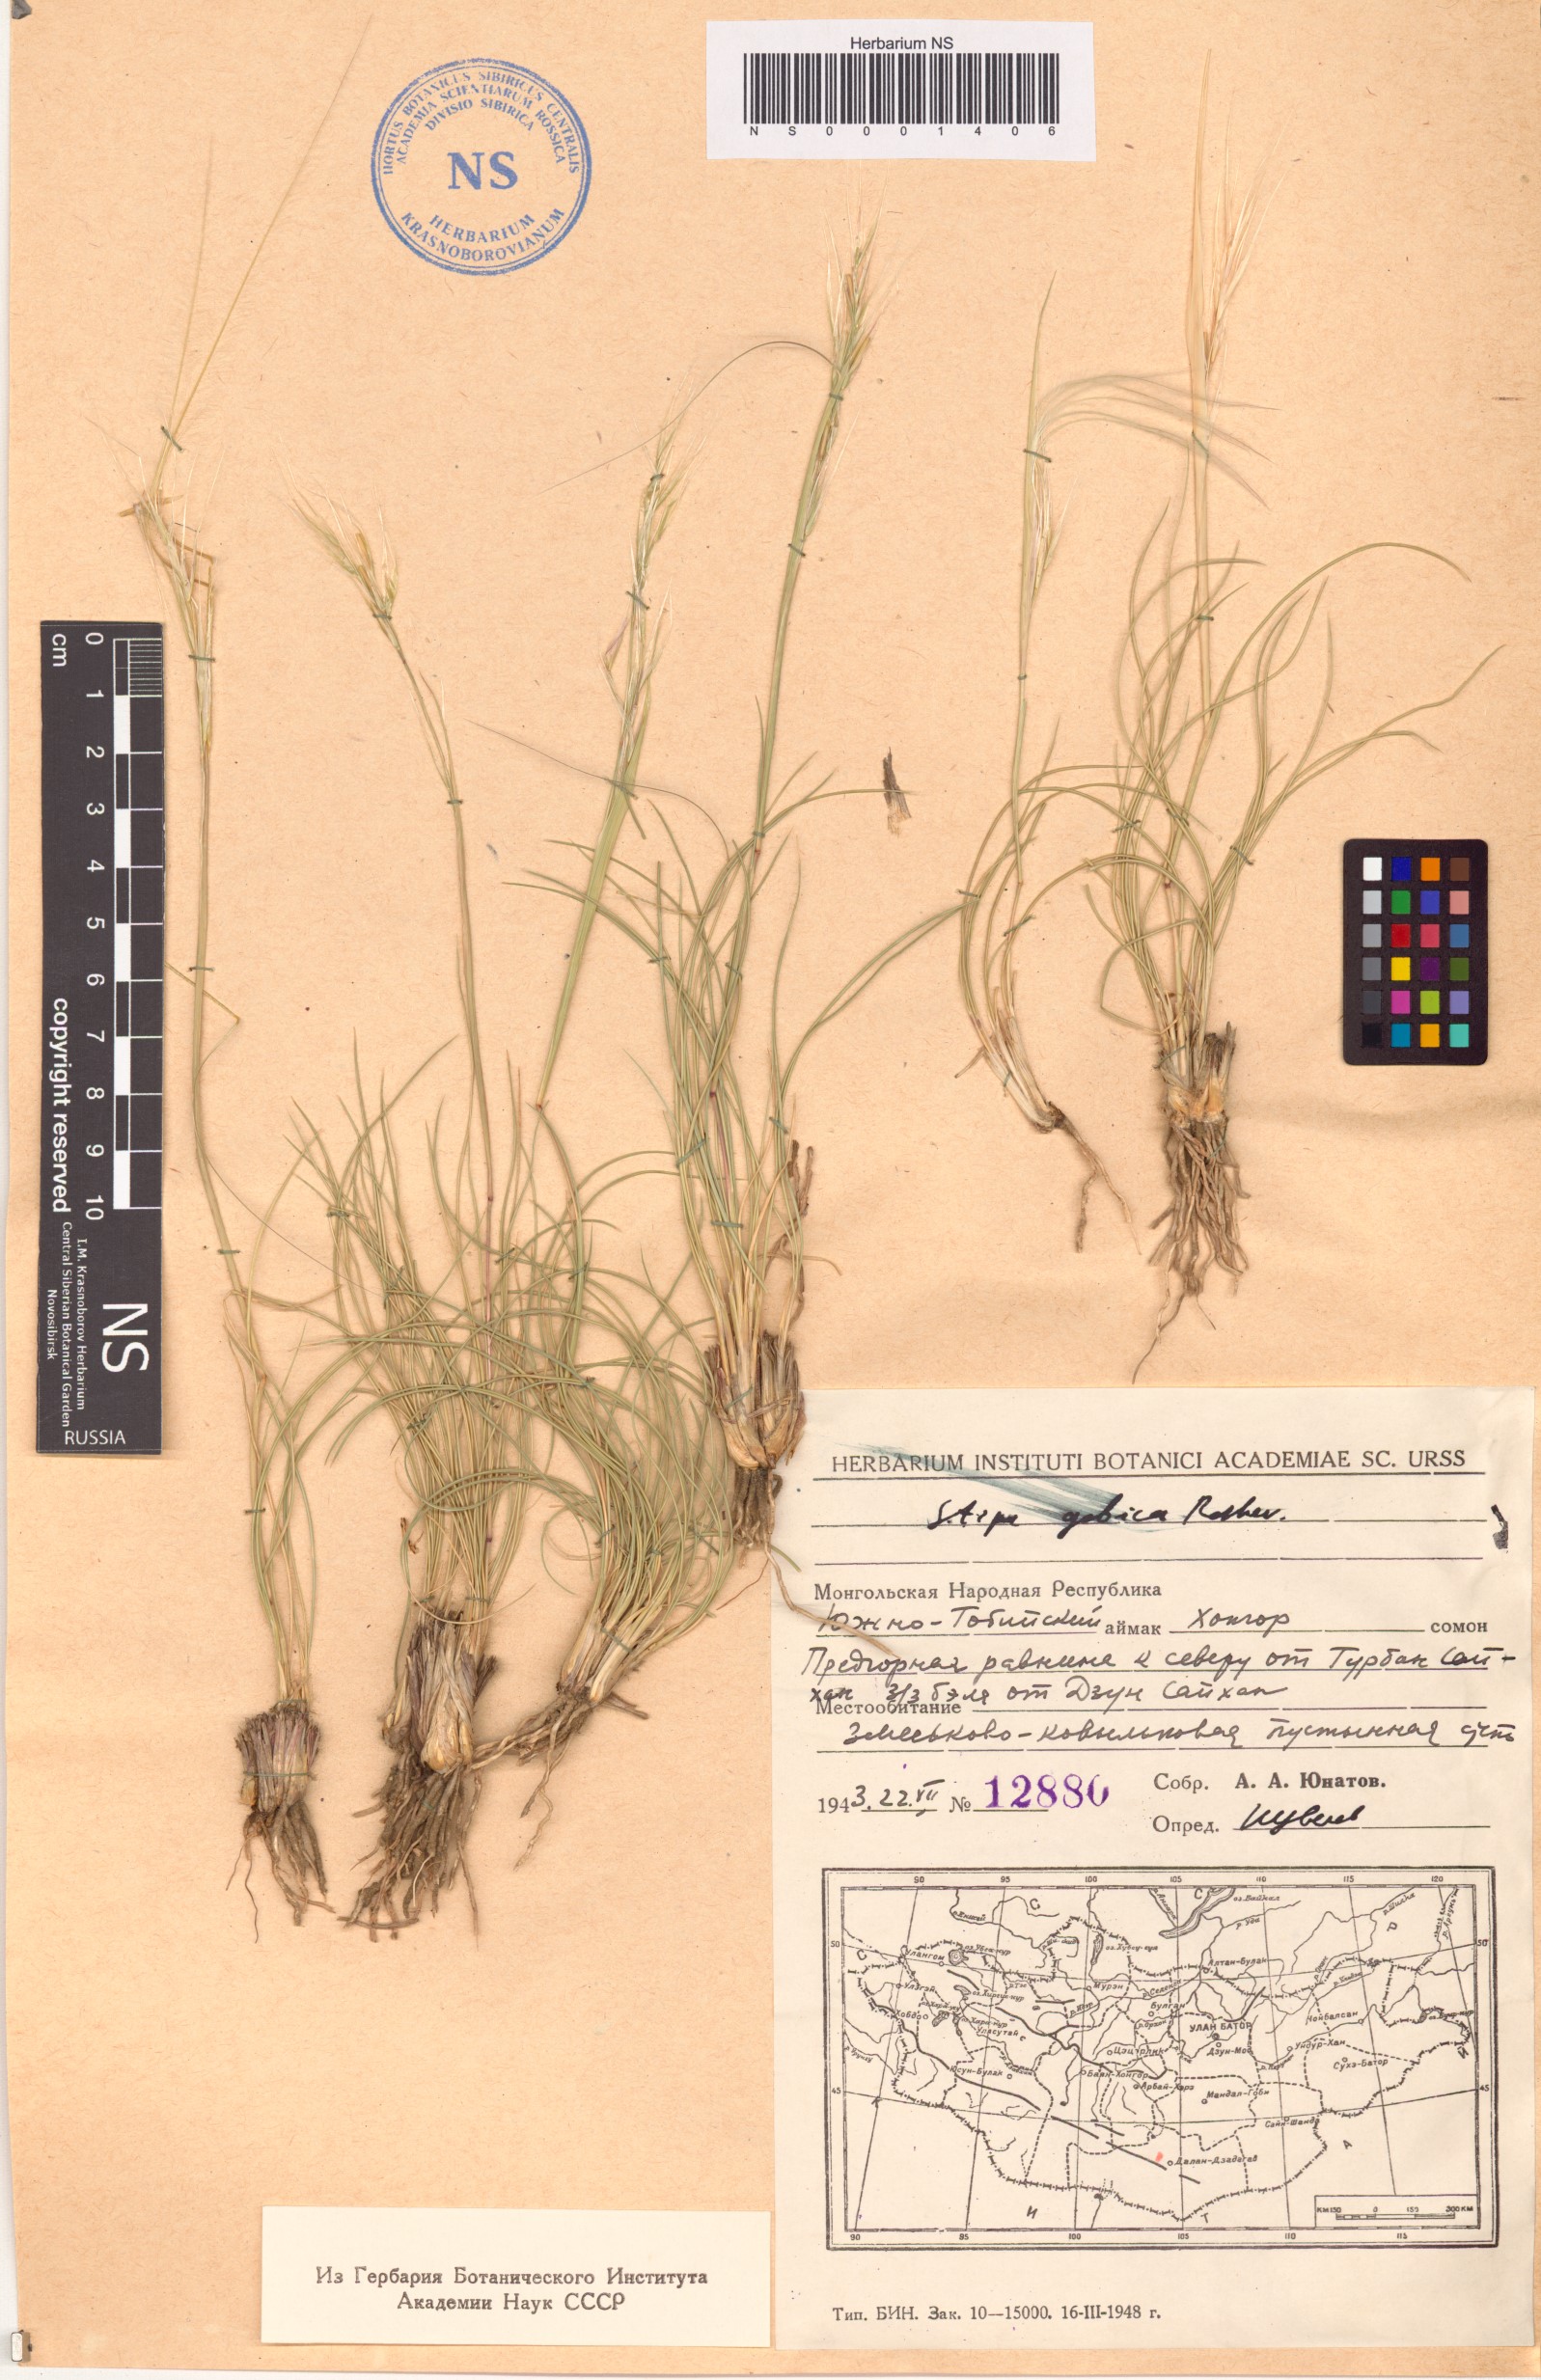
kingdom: Plantae
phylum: Tracheophyta
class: Liliopsida
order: Poales
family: Poaceae
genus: Stipa
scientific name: Stipa tianschanica
